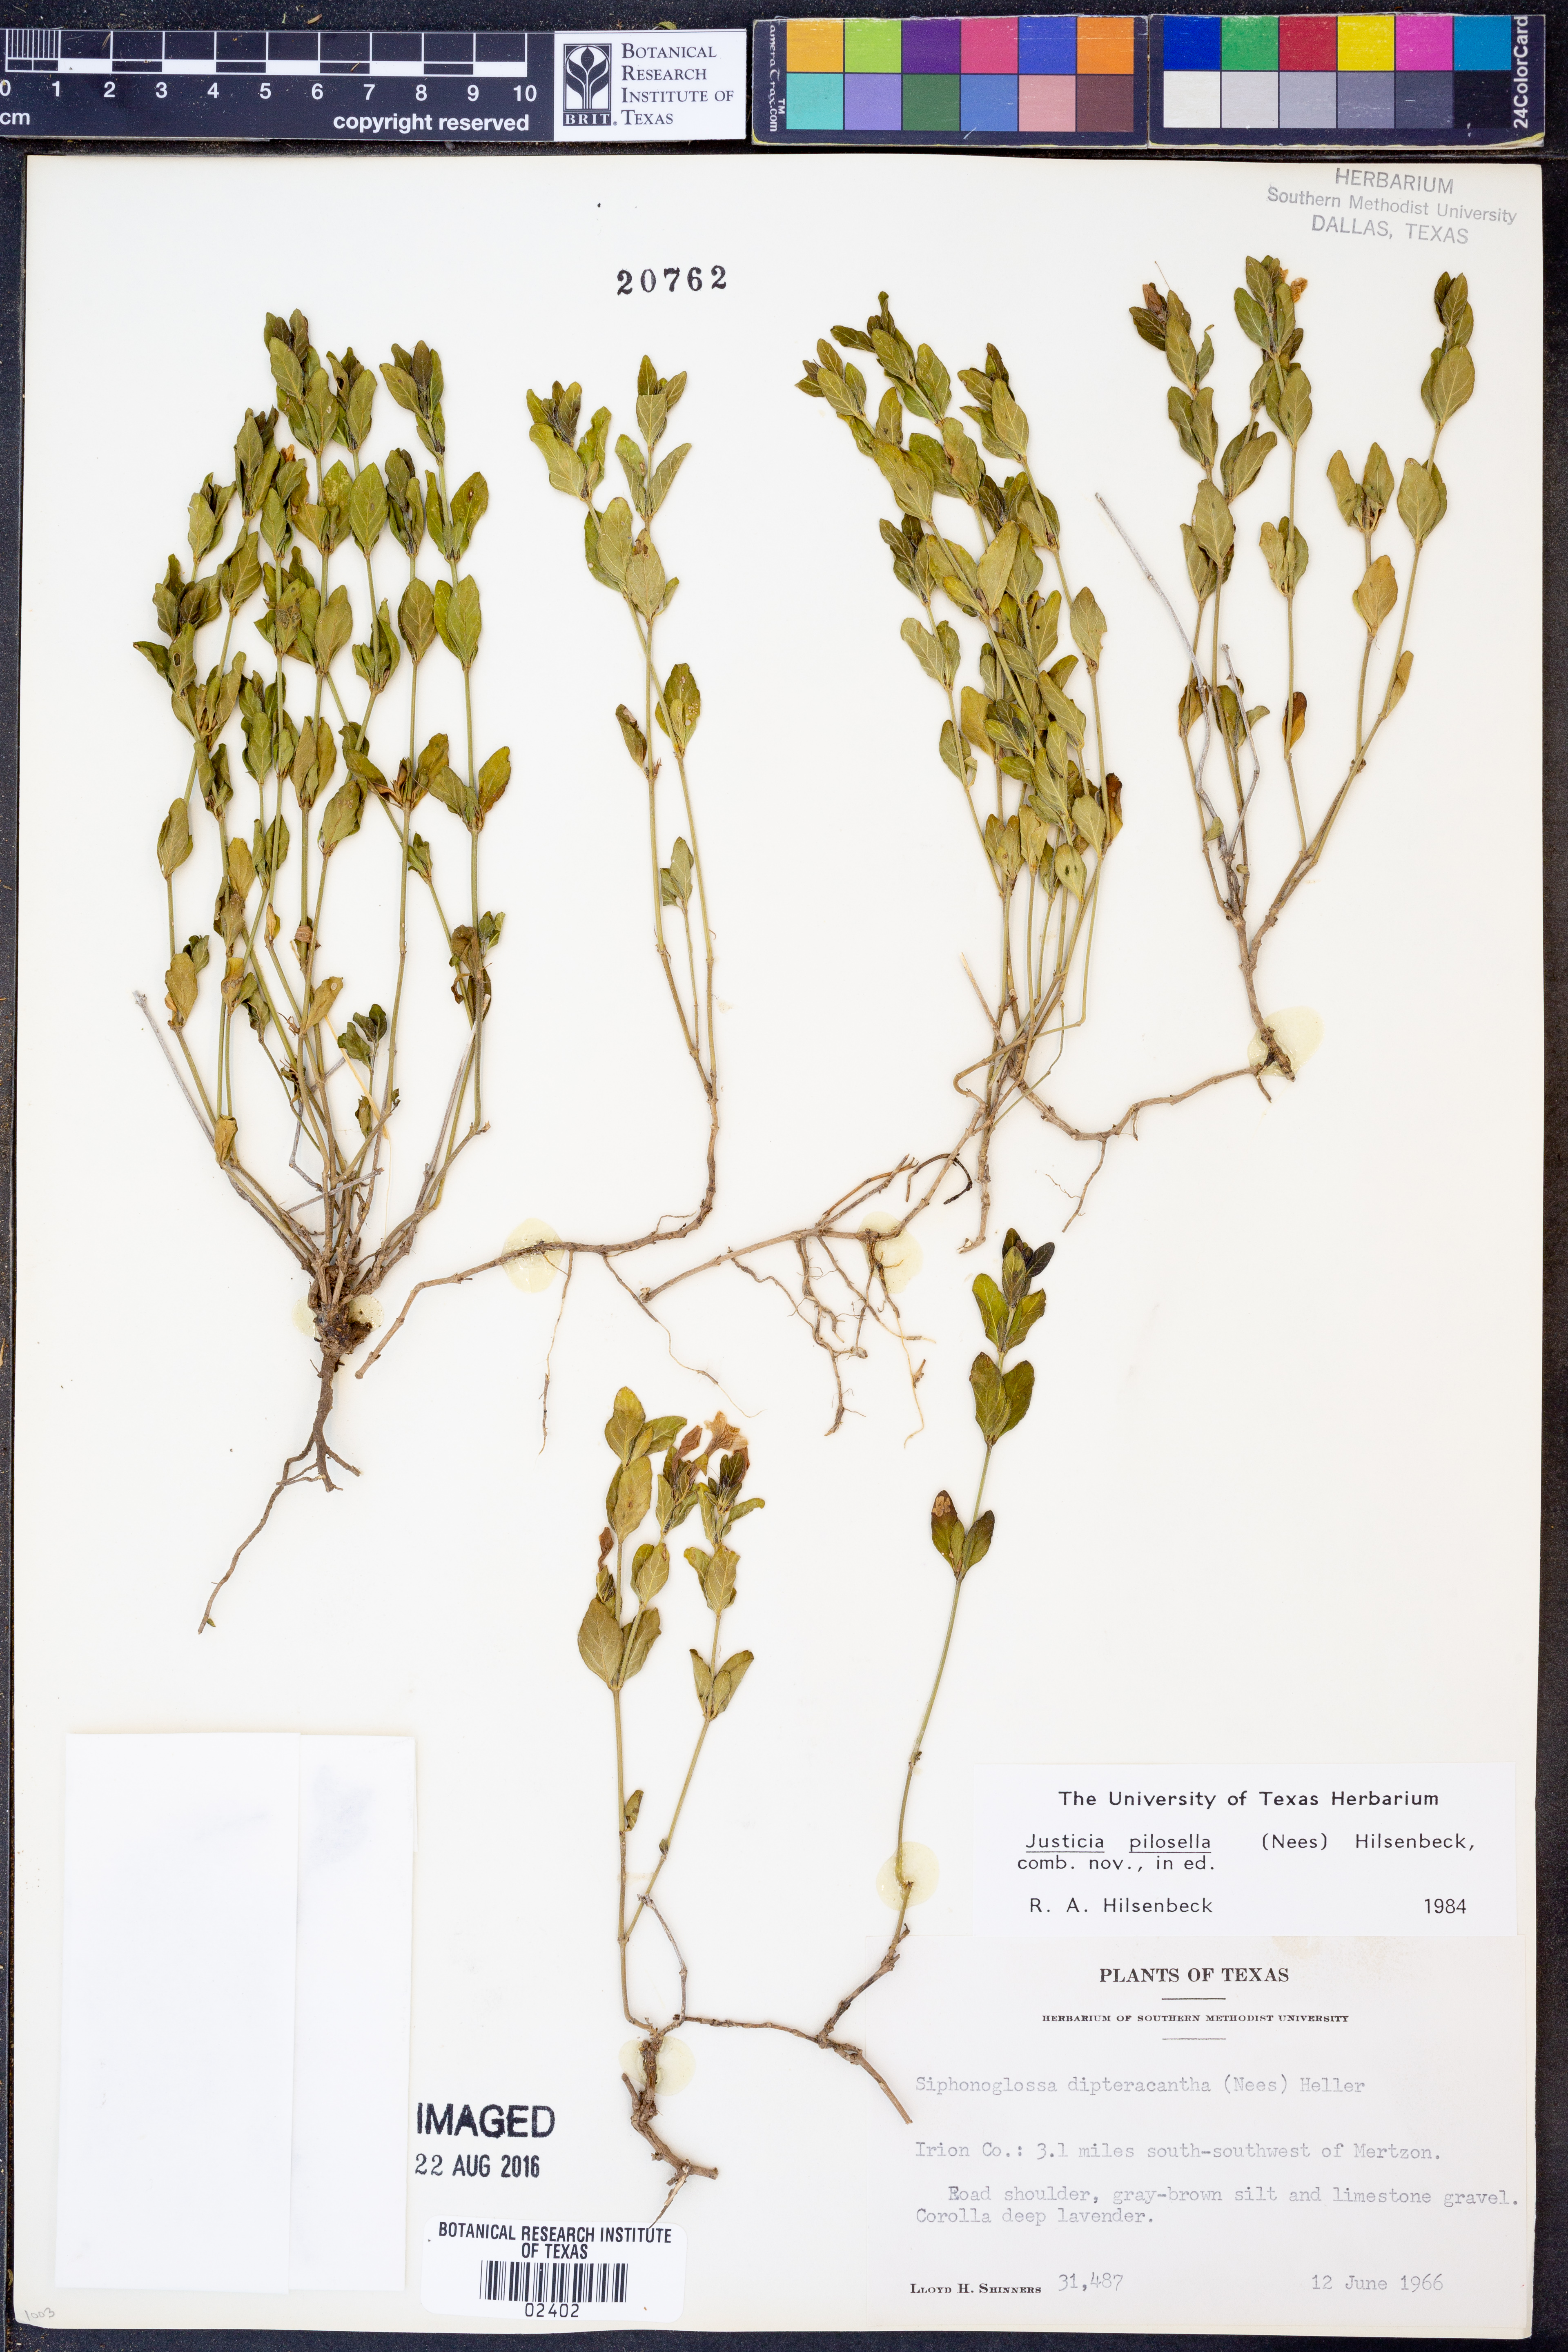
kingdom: Plantae
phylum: Tracheophyta
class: Magnoliopsida
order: Lamiales
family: Acanthaceae
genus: Justicia
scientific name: Justicia pilosella
